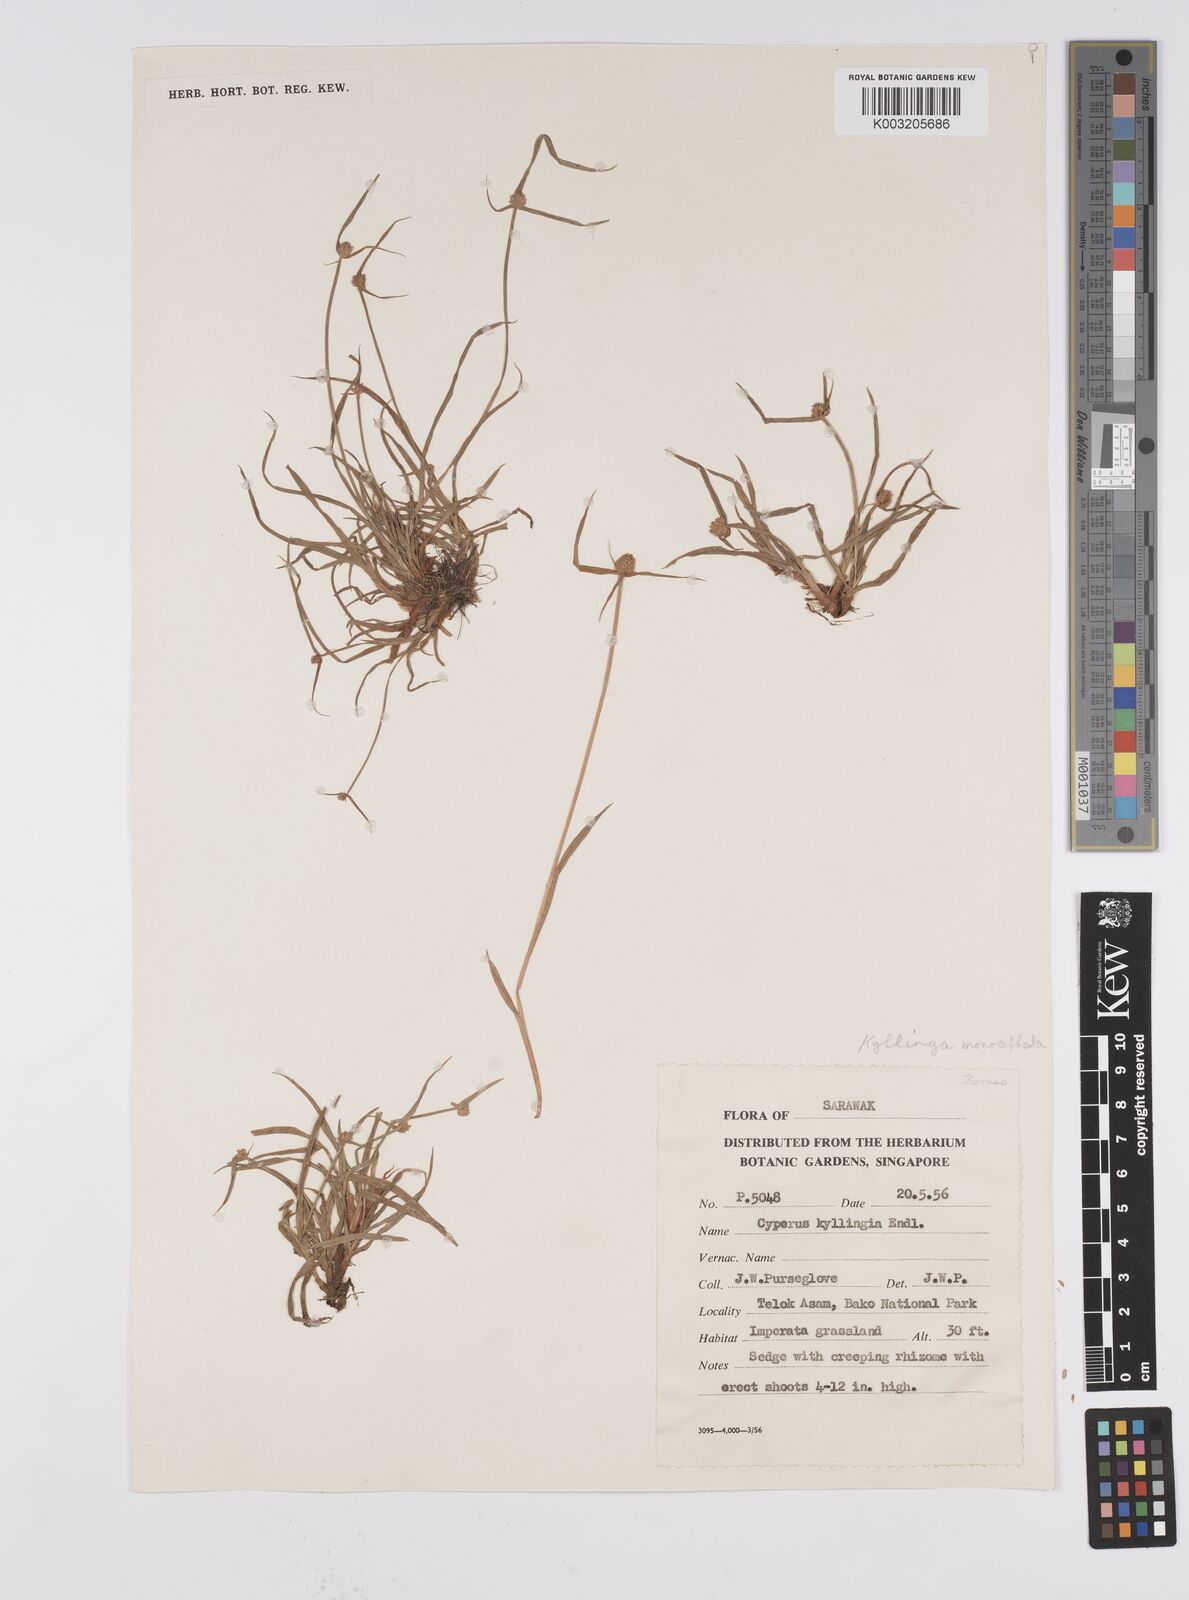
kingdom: Plantae
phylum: Tracheophyta
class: Liliopsida
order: Poales
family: Cyperaceae
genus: Cyperus
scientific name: Cyperus nemoralis
